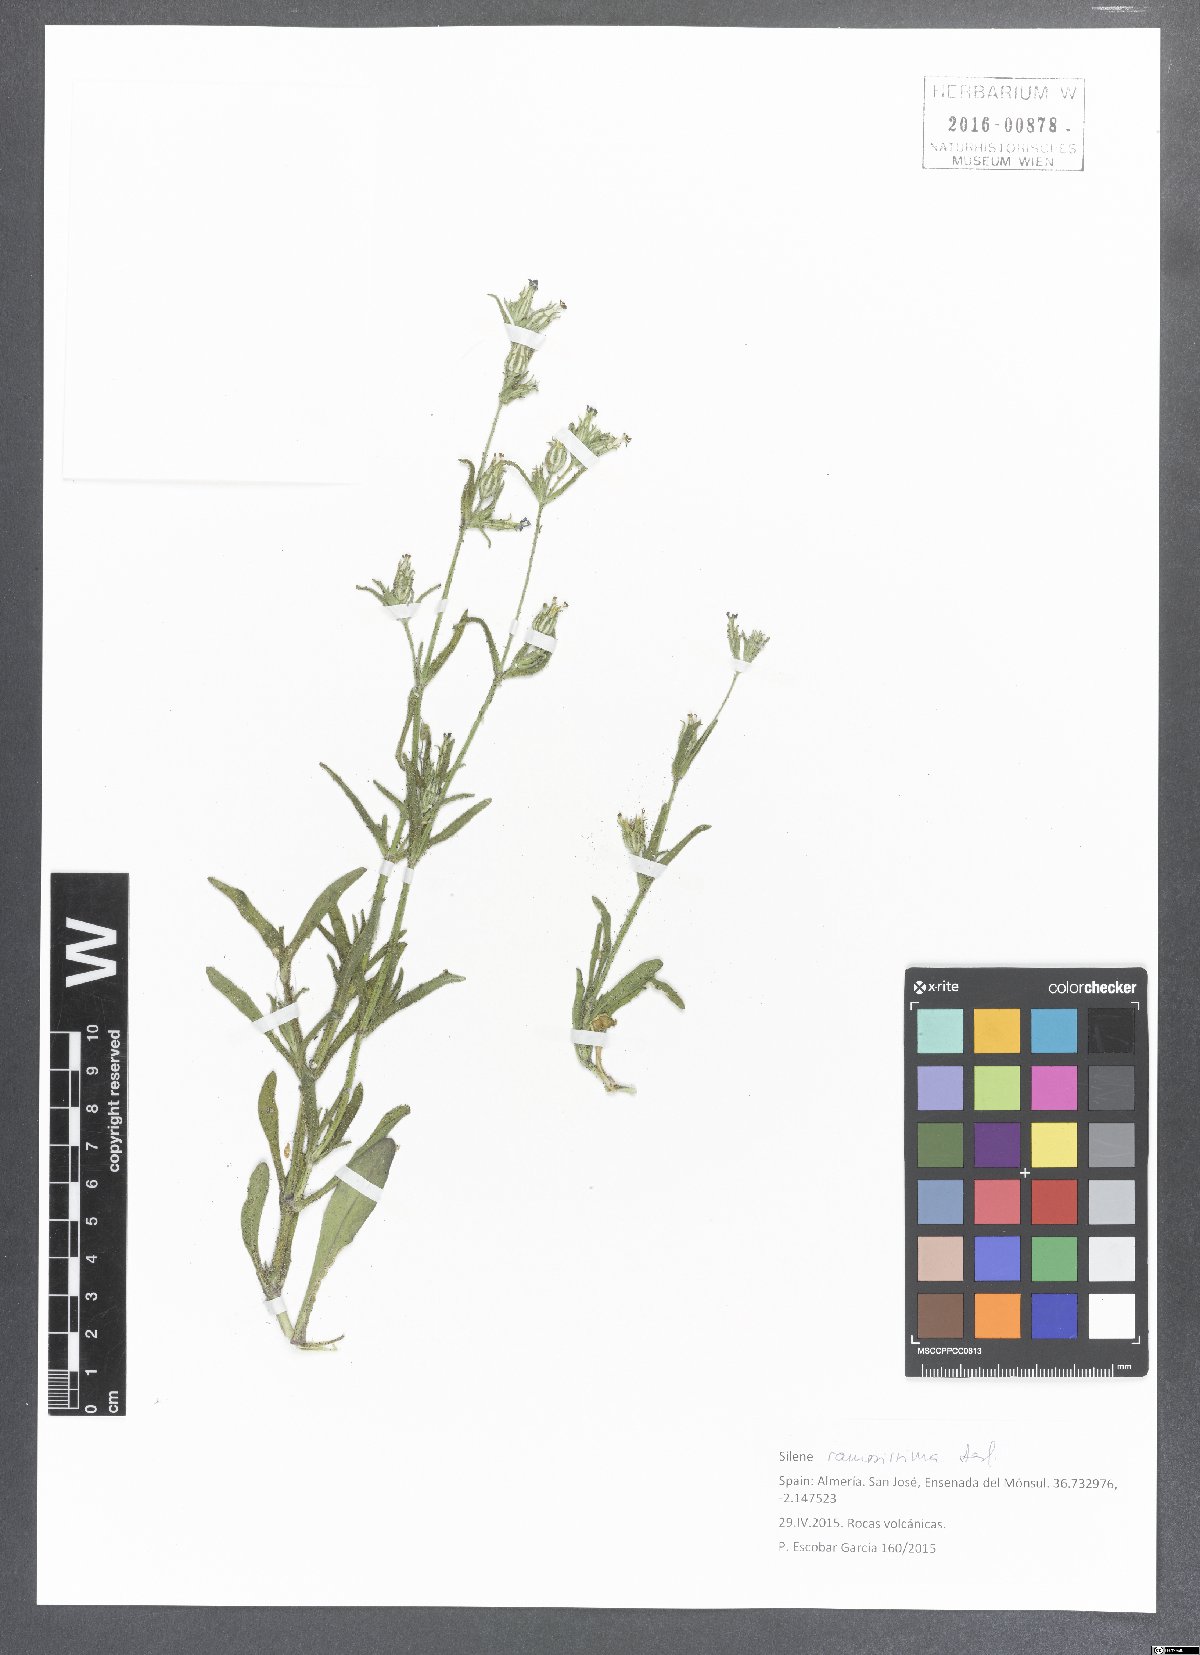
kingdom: Plantae
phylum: Tracheophyta
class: Magnoliopsida
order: Caryophyllales
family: Caryophyllaceae
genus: Silene
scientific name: Silene ramosissima
